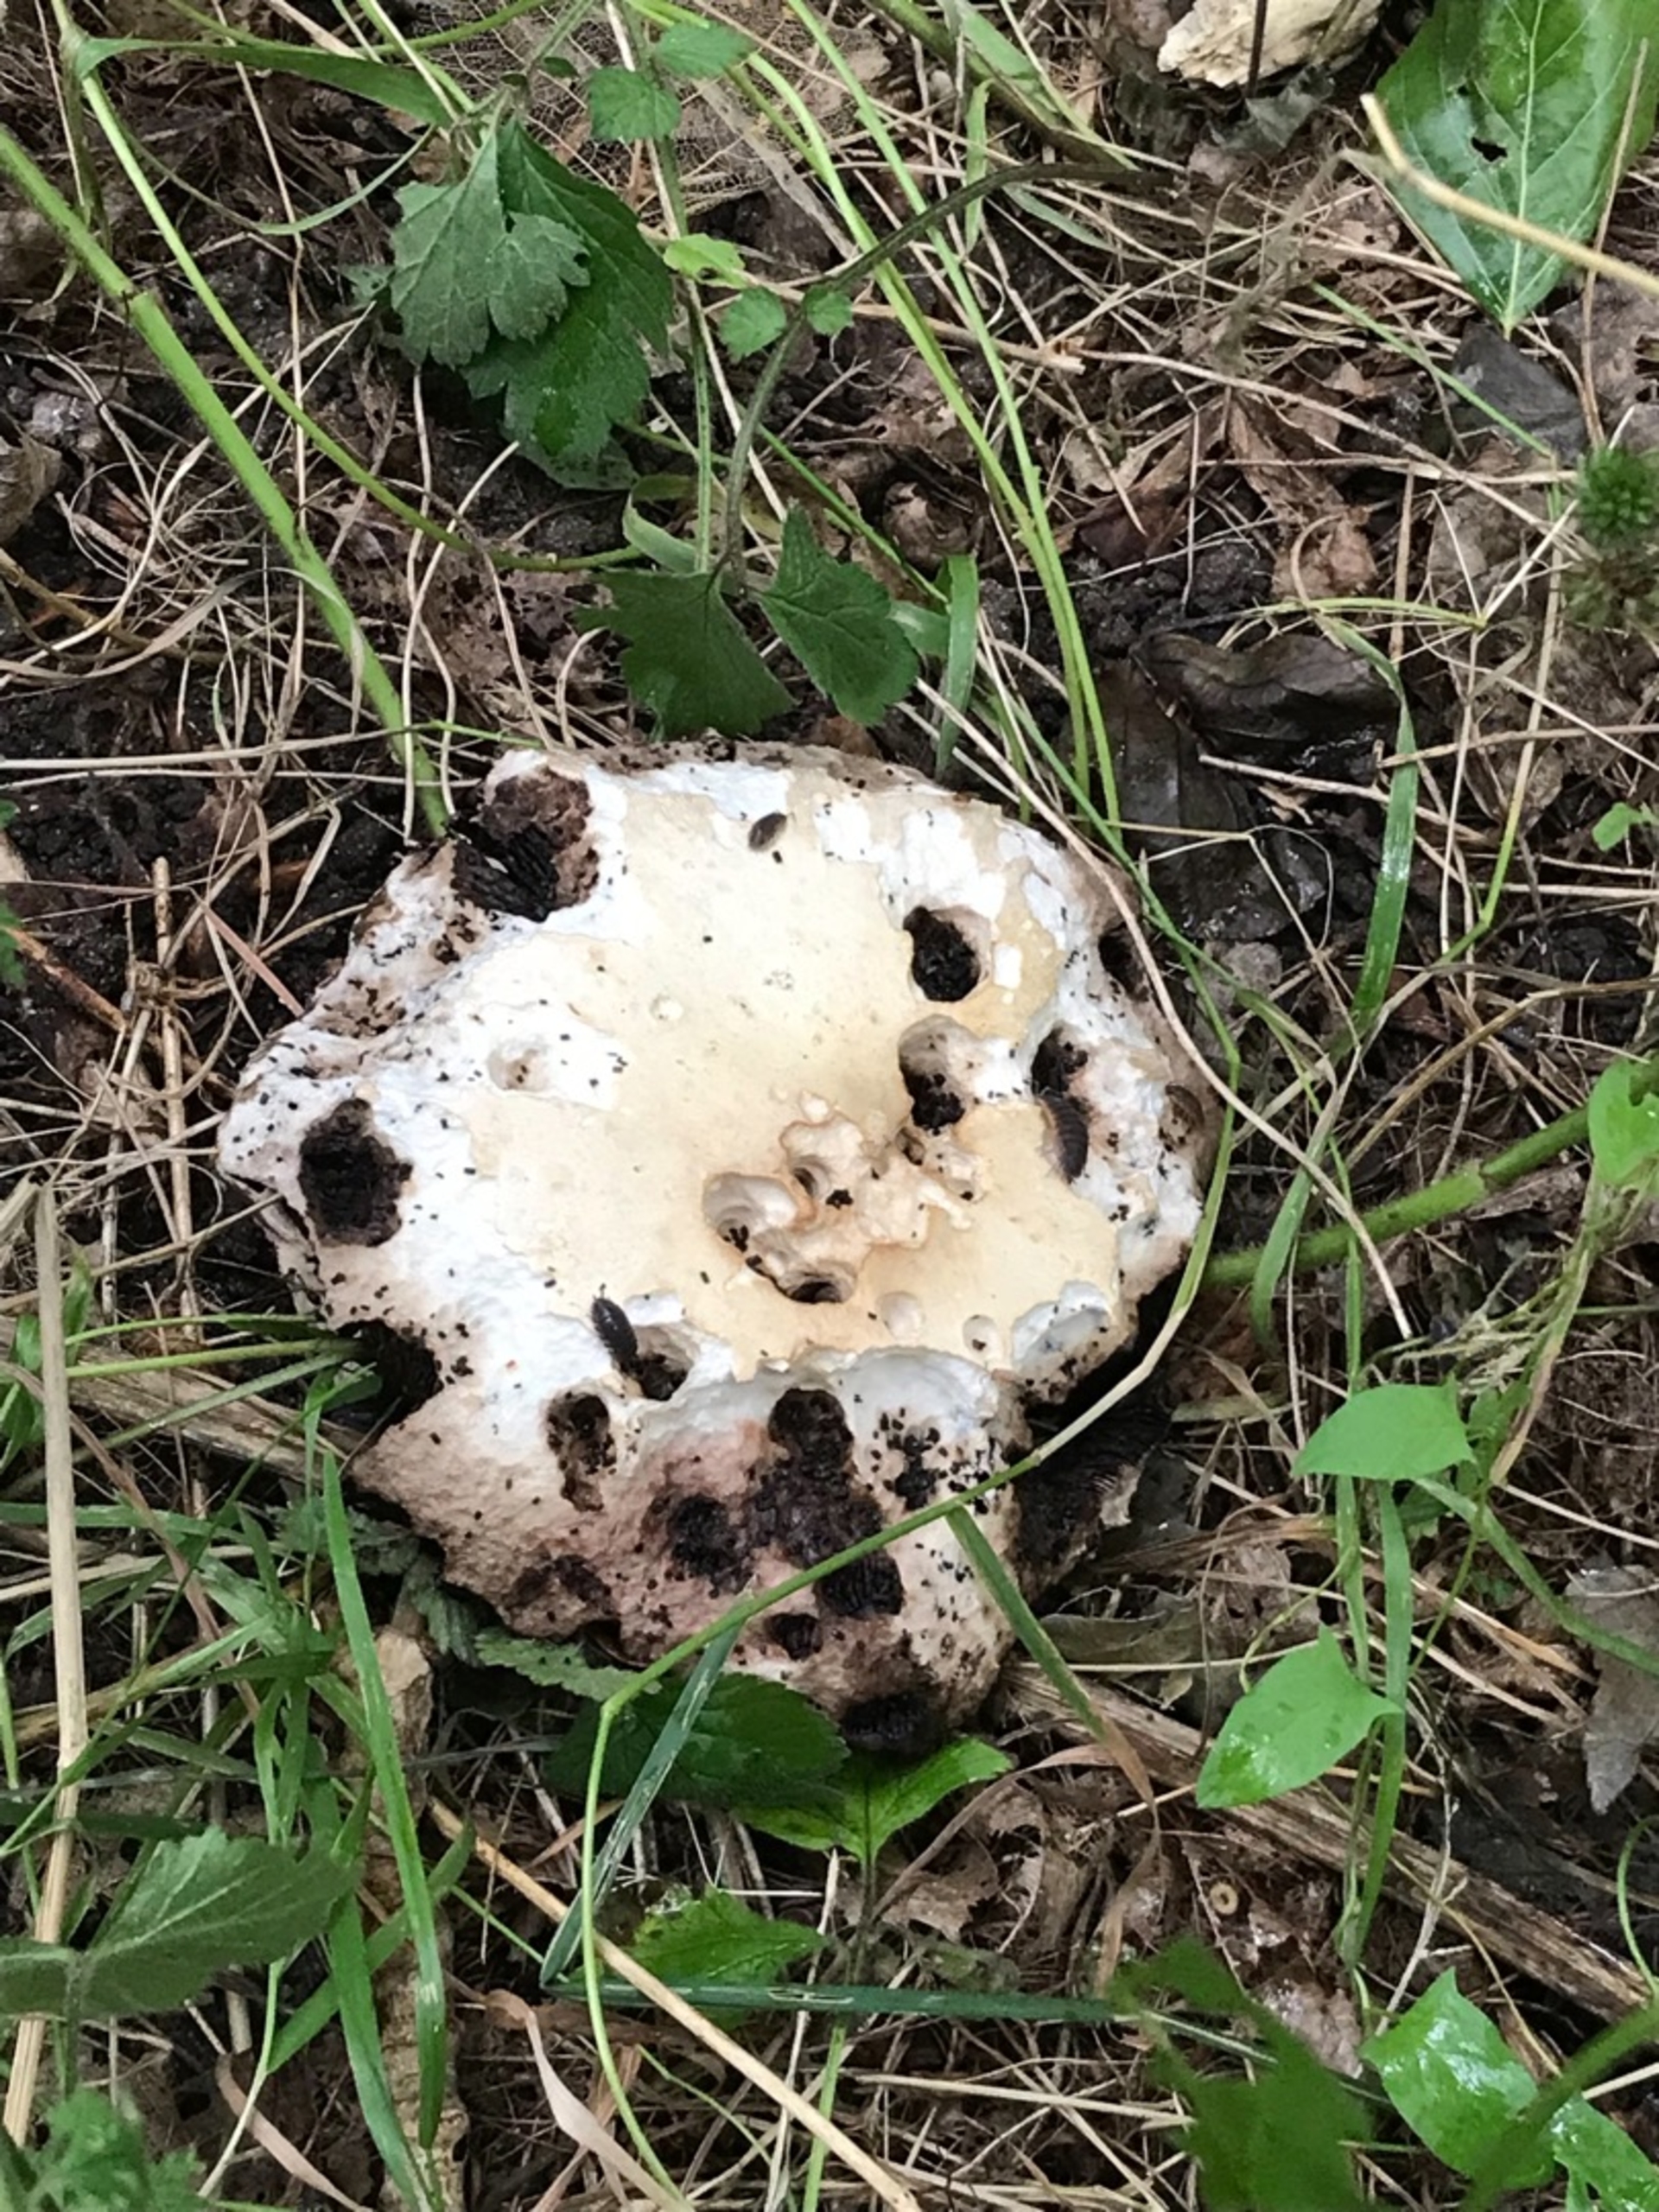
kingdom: Fungi
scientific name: Fungi
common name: Svamperiget
